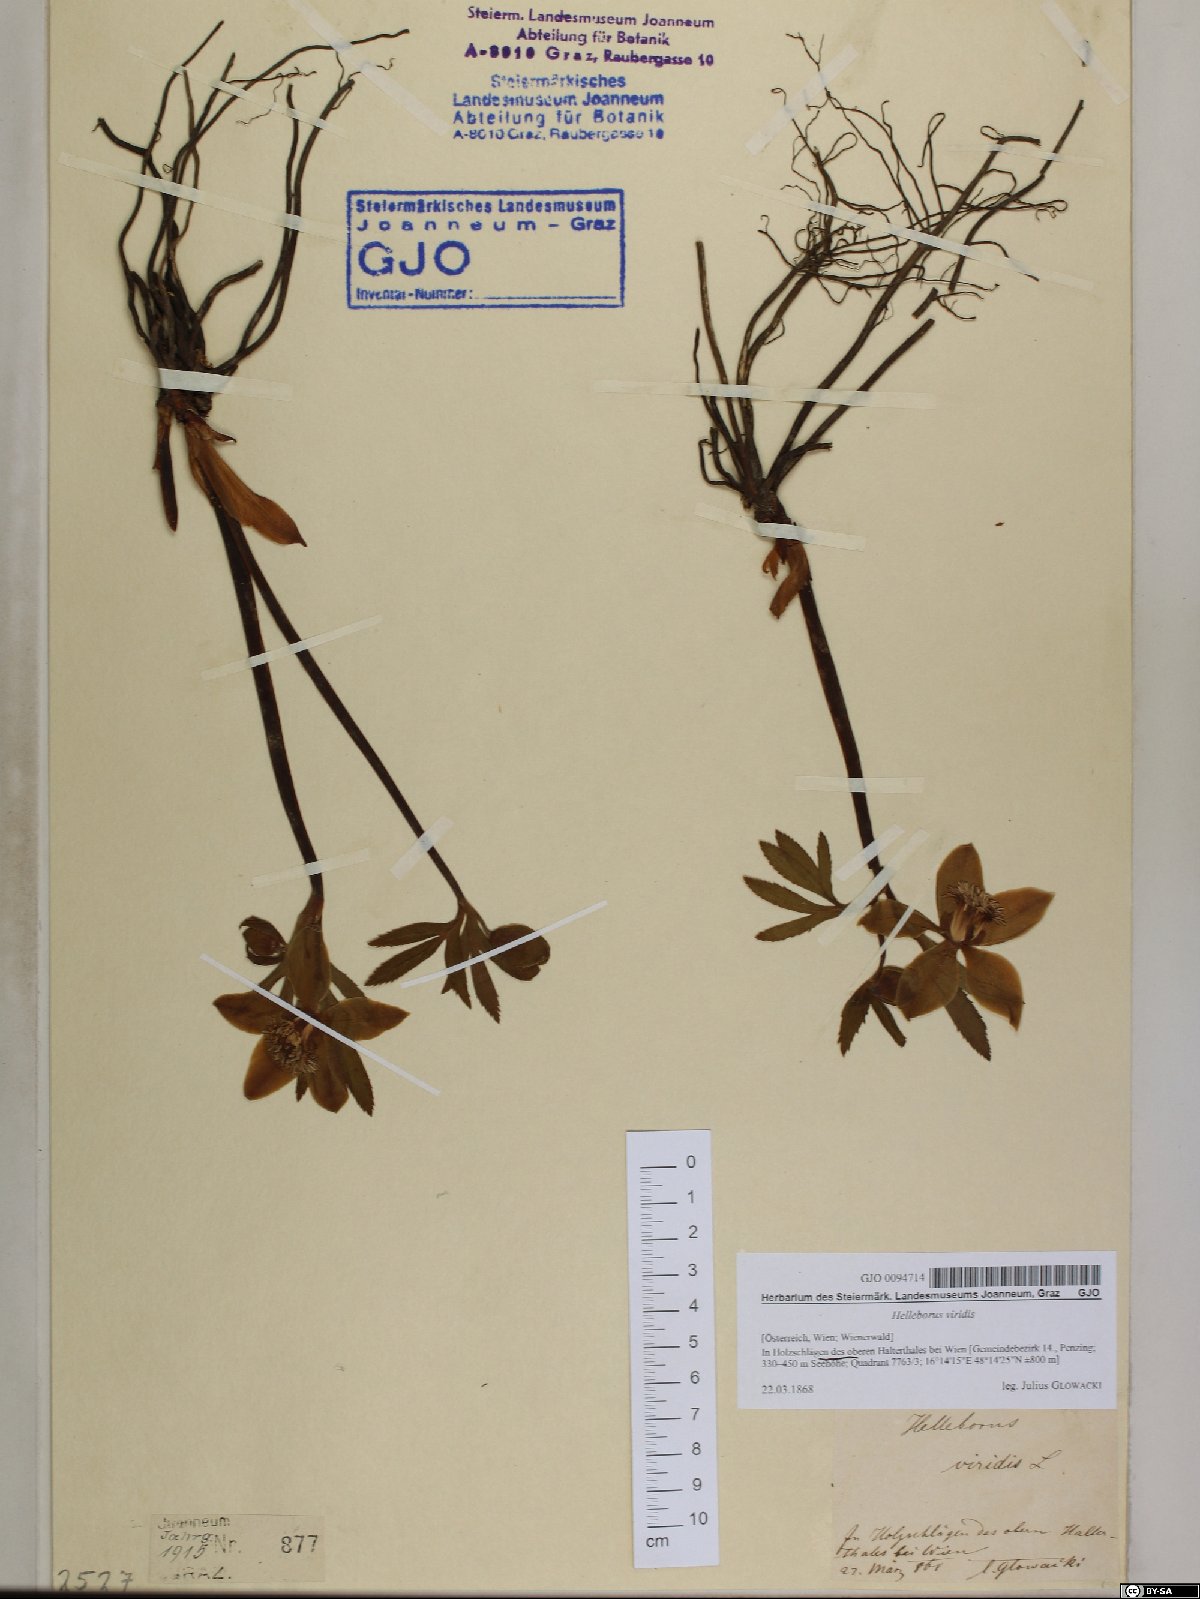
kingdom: Plantae
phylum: Tracheophyta
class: Magnoliopsida
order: Ranunculales
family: Ranunculaceae
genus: Helleborus
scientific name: Helleborus viridis
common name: Green hellebore
